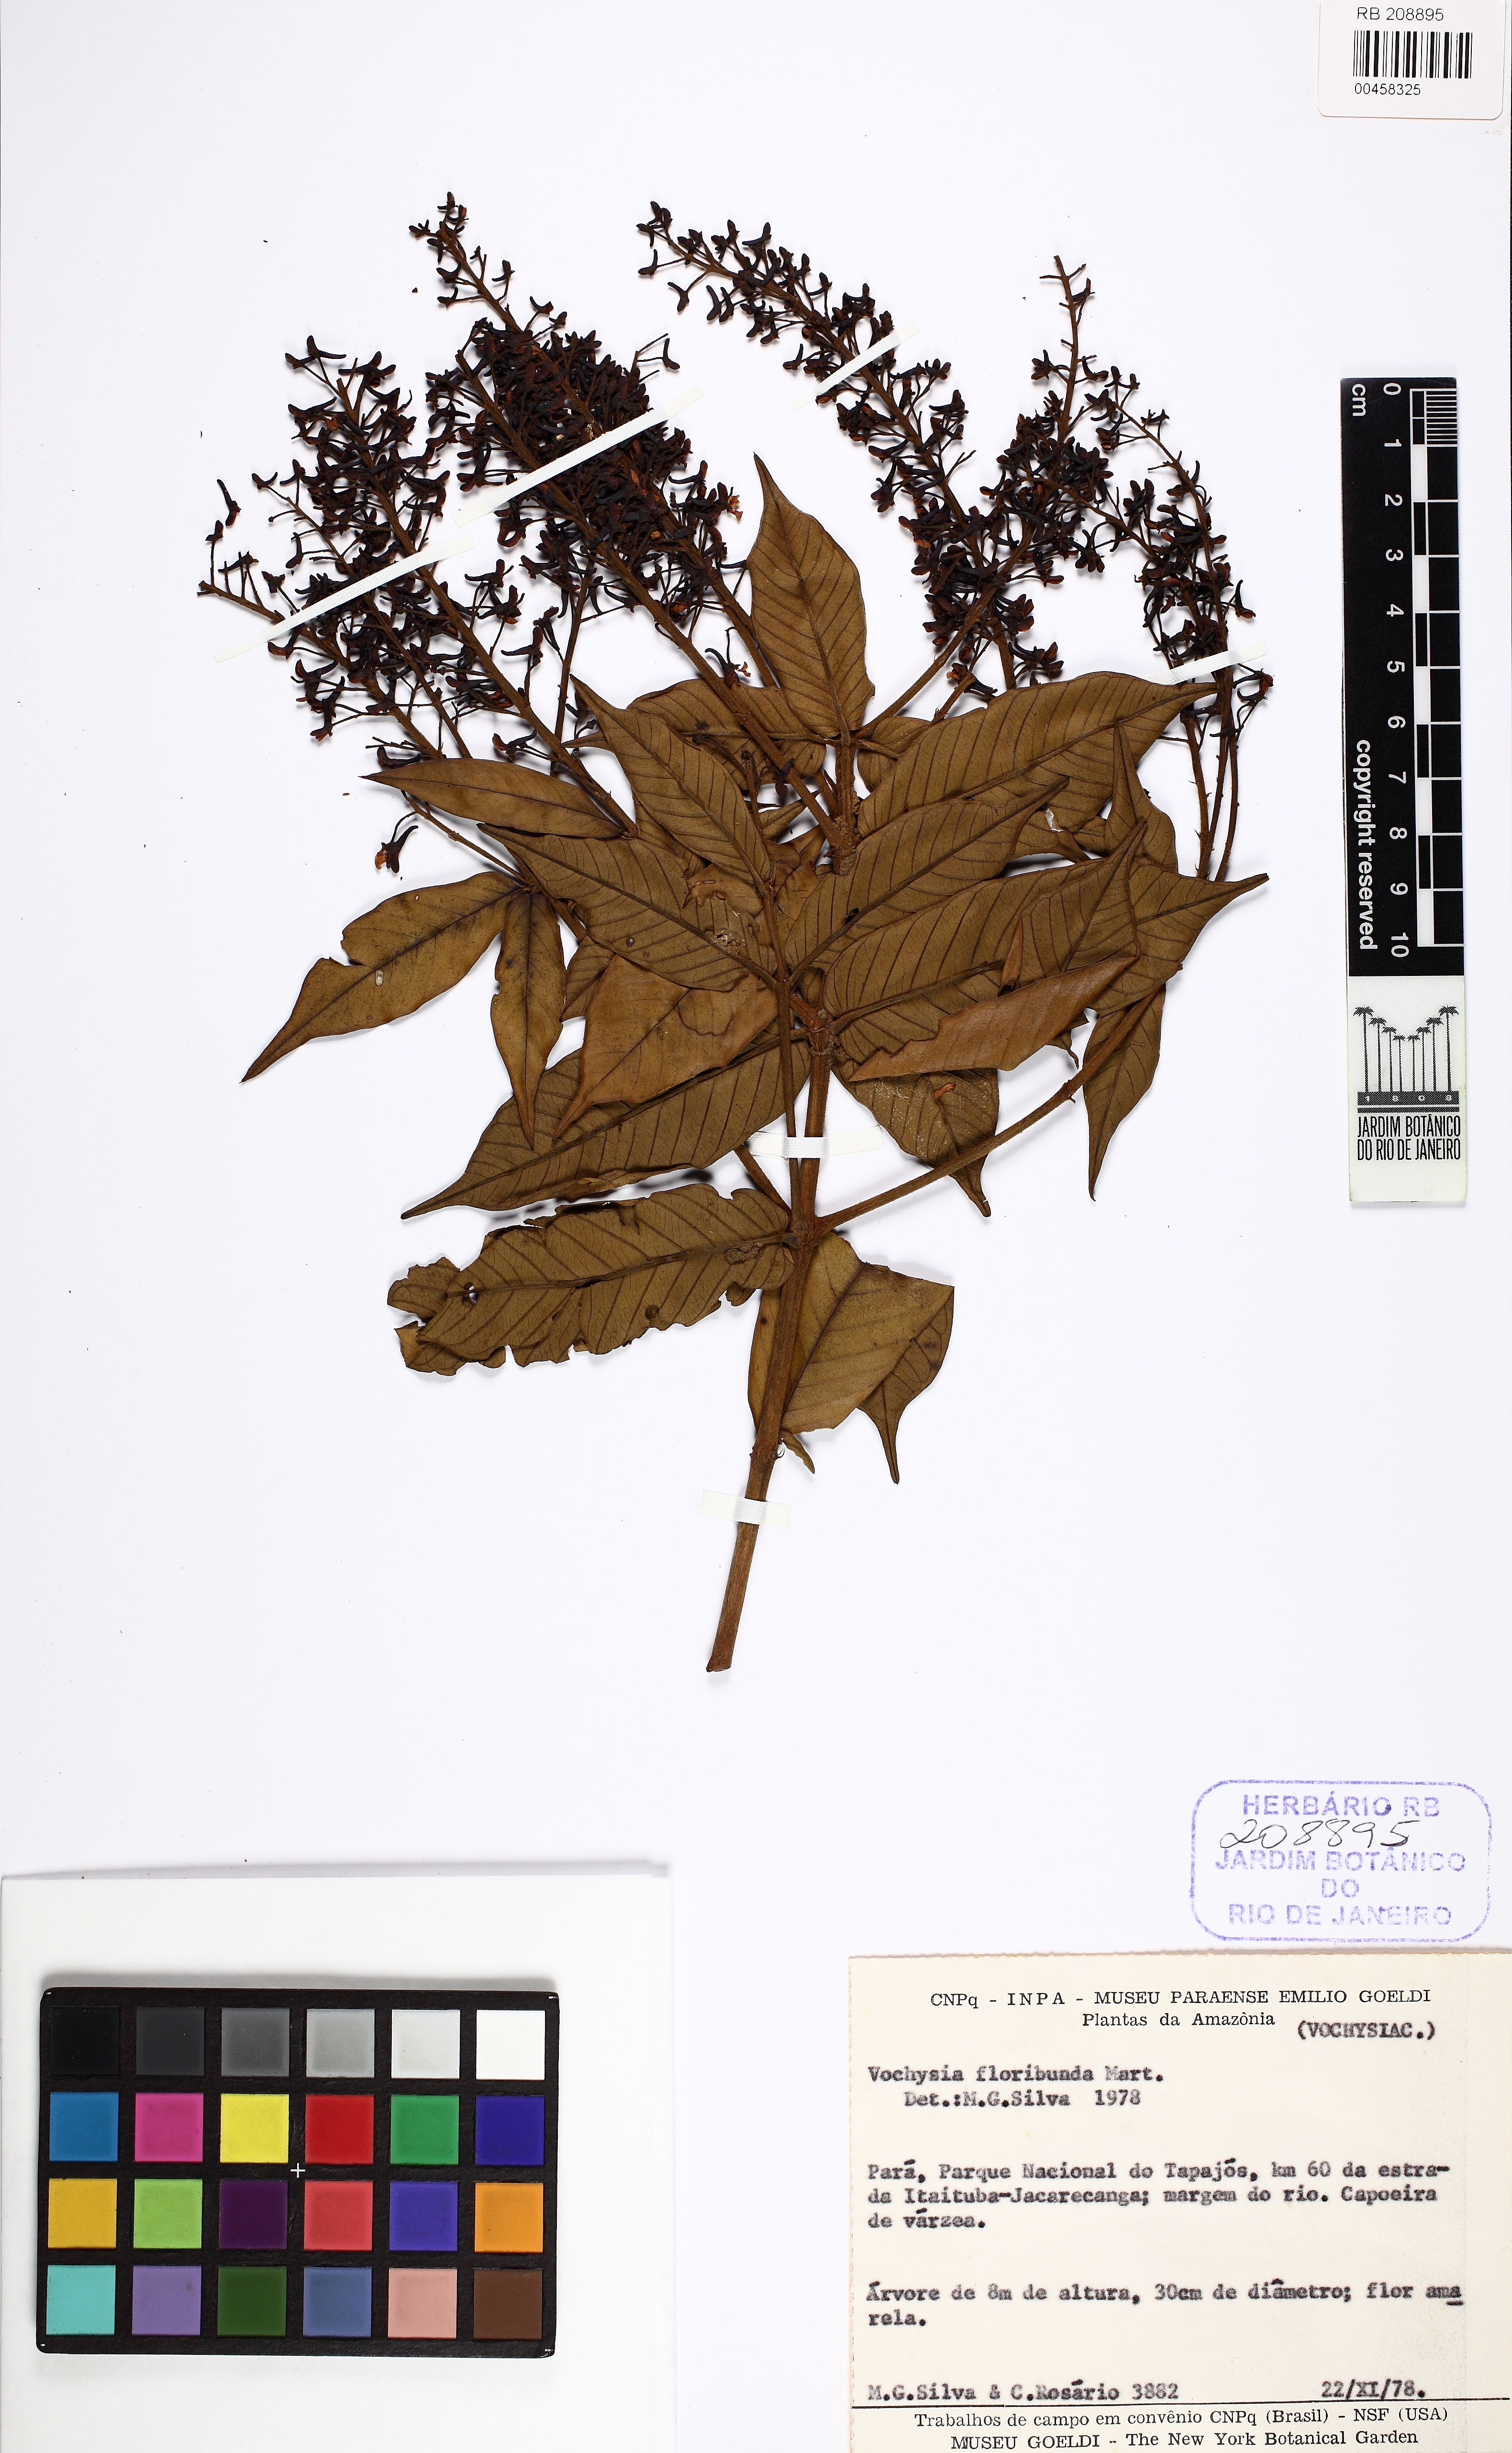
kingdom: Plantae
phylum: Tracheophyta
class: Magnoliopsida
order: Myrtales
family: Vochysiaceae
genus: Vochysia
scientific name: Vochysia floribunda
